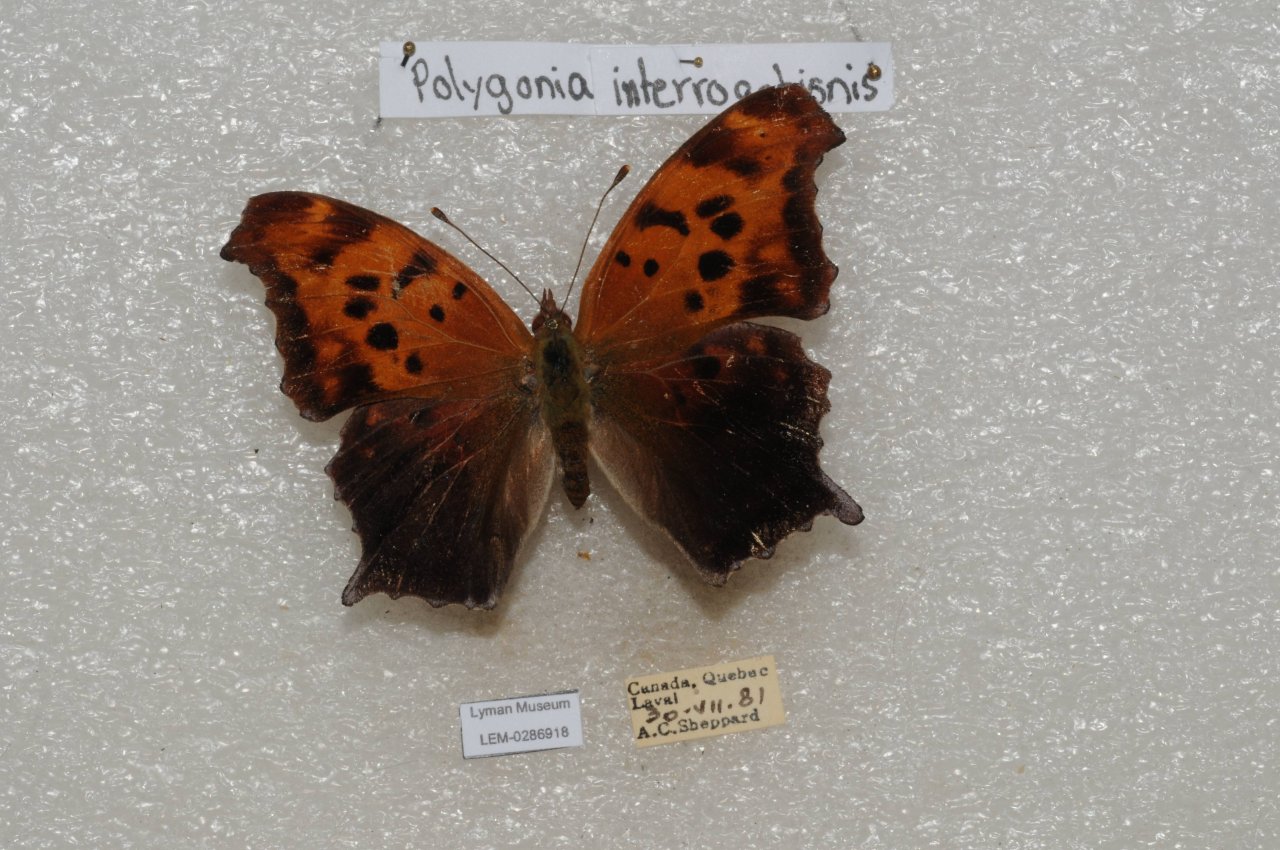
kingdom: Animalia
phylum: Arthropoda
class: Insecta
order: Lepidoptera
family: Nymphalidae
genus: Polygonia
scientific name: Polygonia interrogationis
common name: Question Mark
